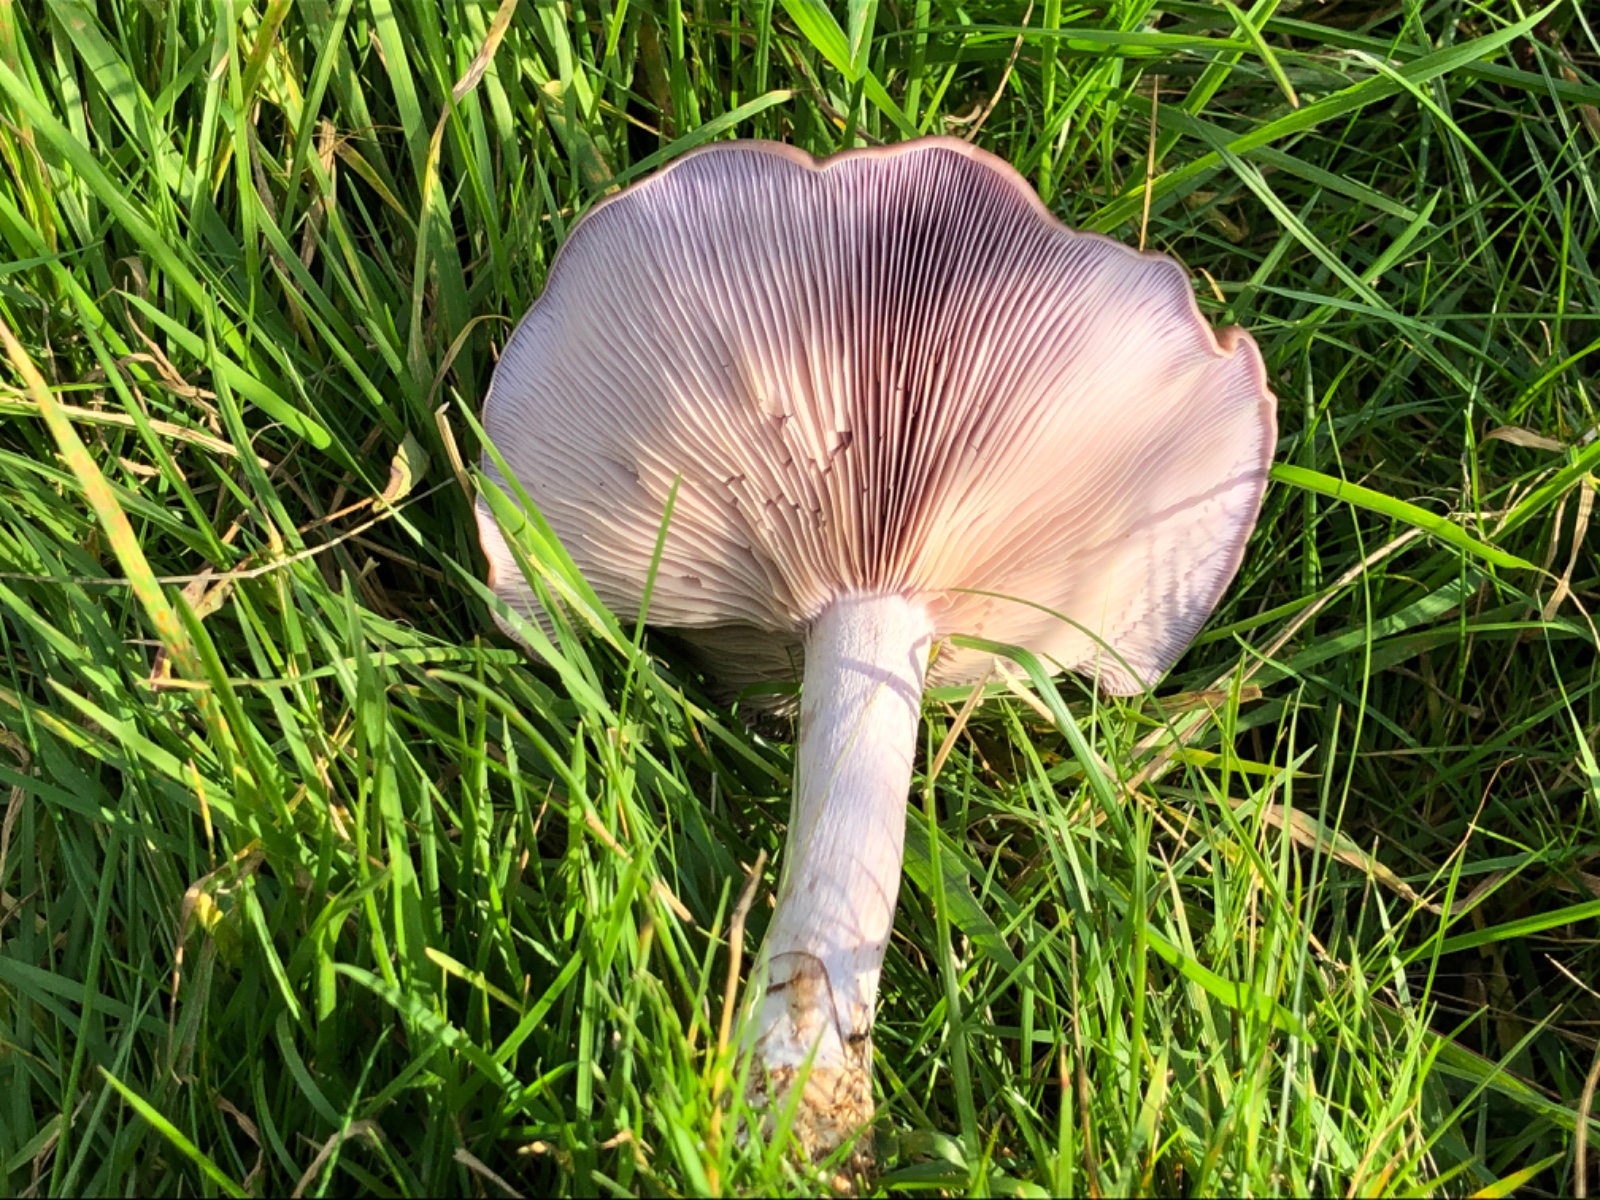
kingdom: Fungi
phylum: Basidiomycota
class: Agaricomycetes
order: Agaricales
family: Tricholomataceae
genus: Lepista
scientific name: Lepista nuda
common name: violet hekseringshat
